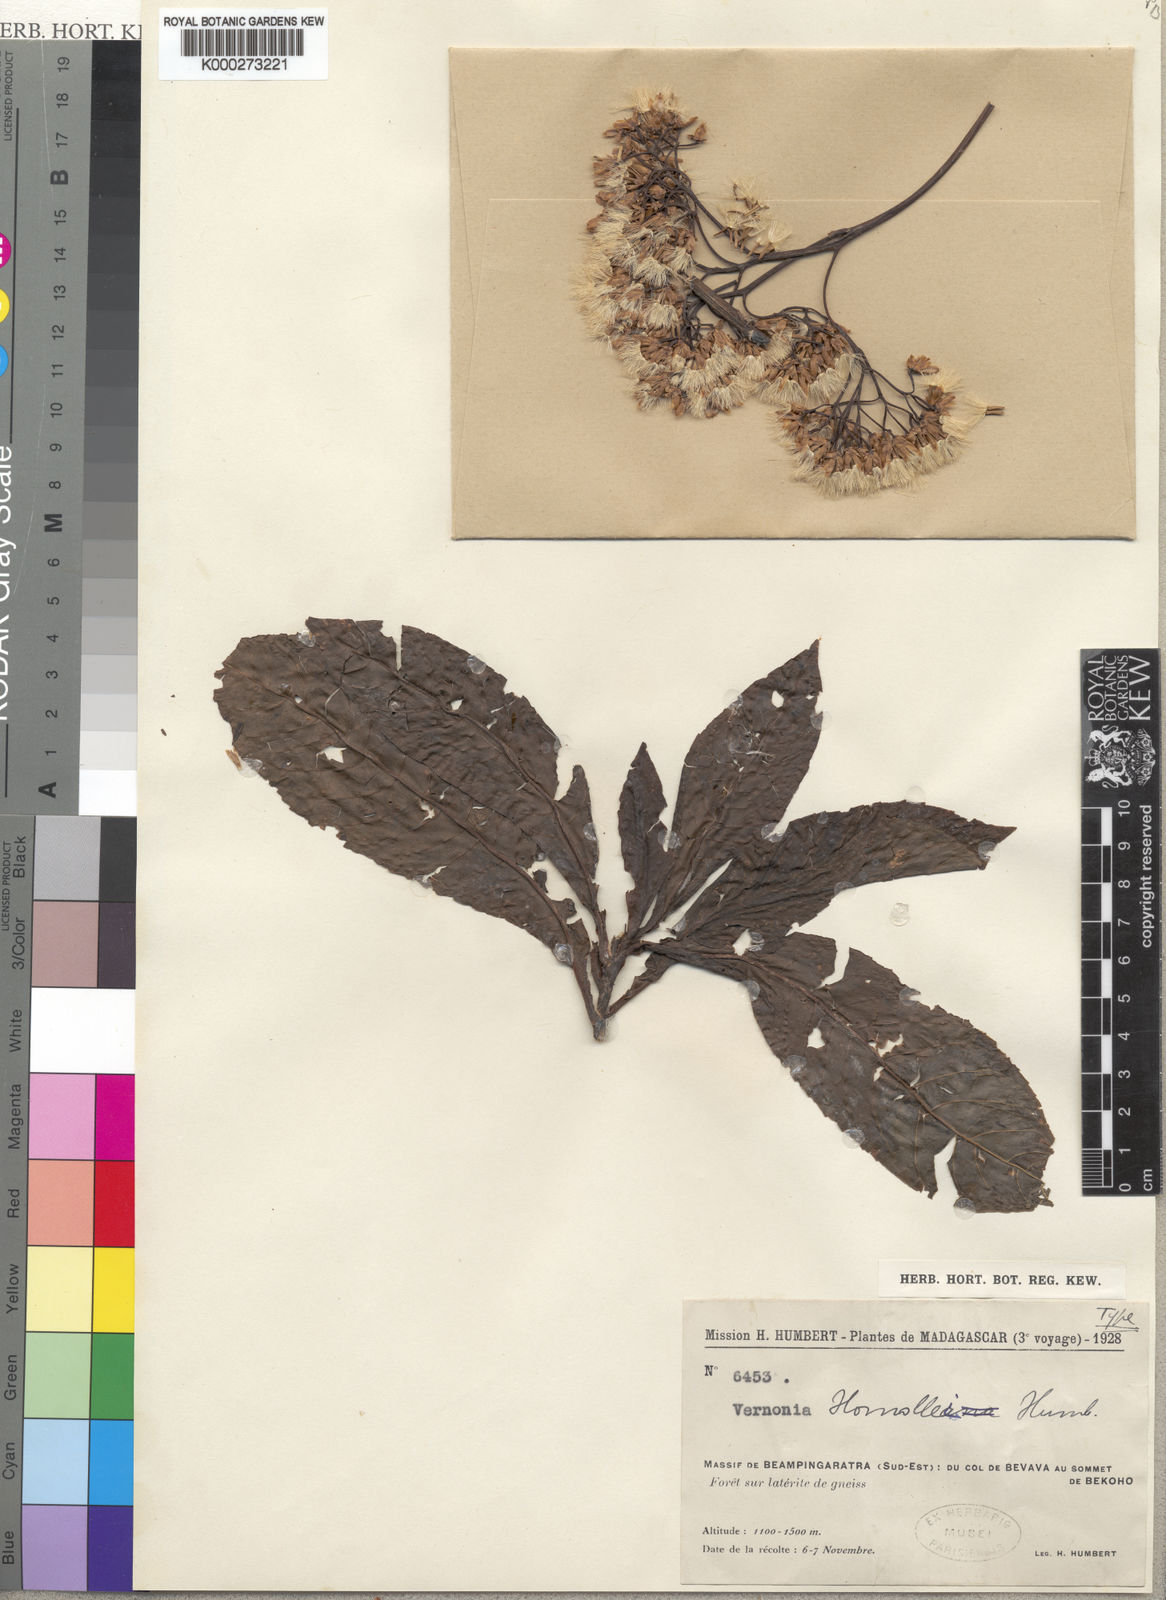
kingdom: Plantae
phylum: Tracheophyta
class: Magnoliopsida
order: Asterales
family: Asteraceae
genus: Vernonia
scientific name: Vernonia homollei
